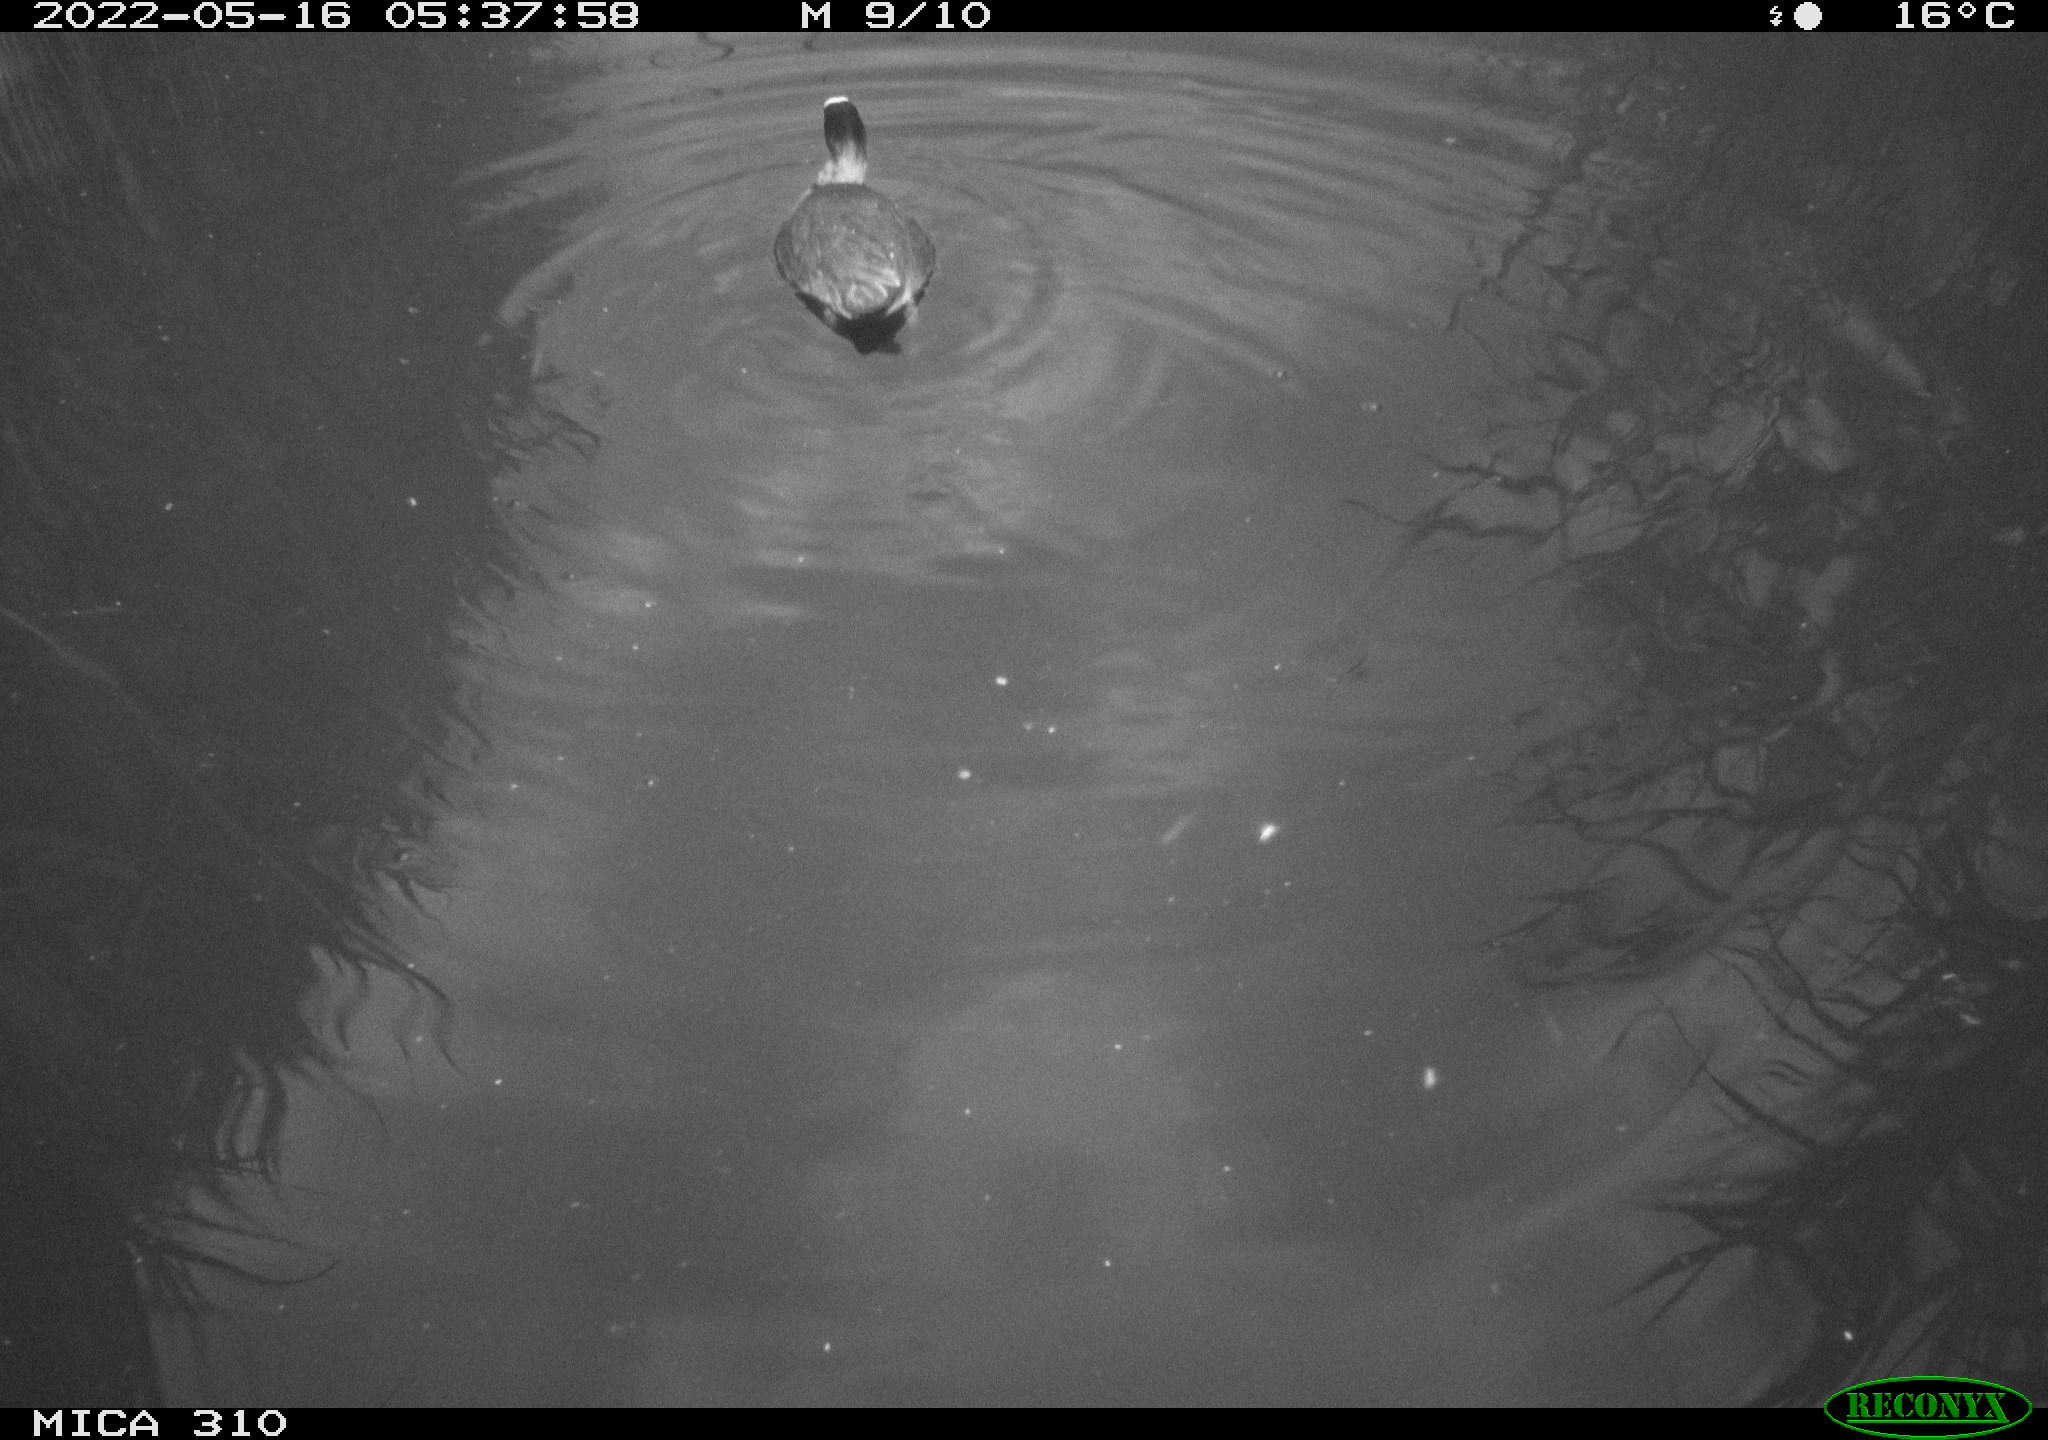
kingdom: Animalia
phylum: Chordata
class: Aves
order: Gruiformes
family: Rallidae
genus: Fulica
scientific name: Fulica atra
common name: Eurasian coot
